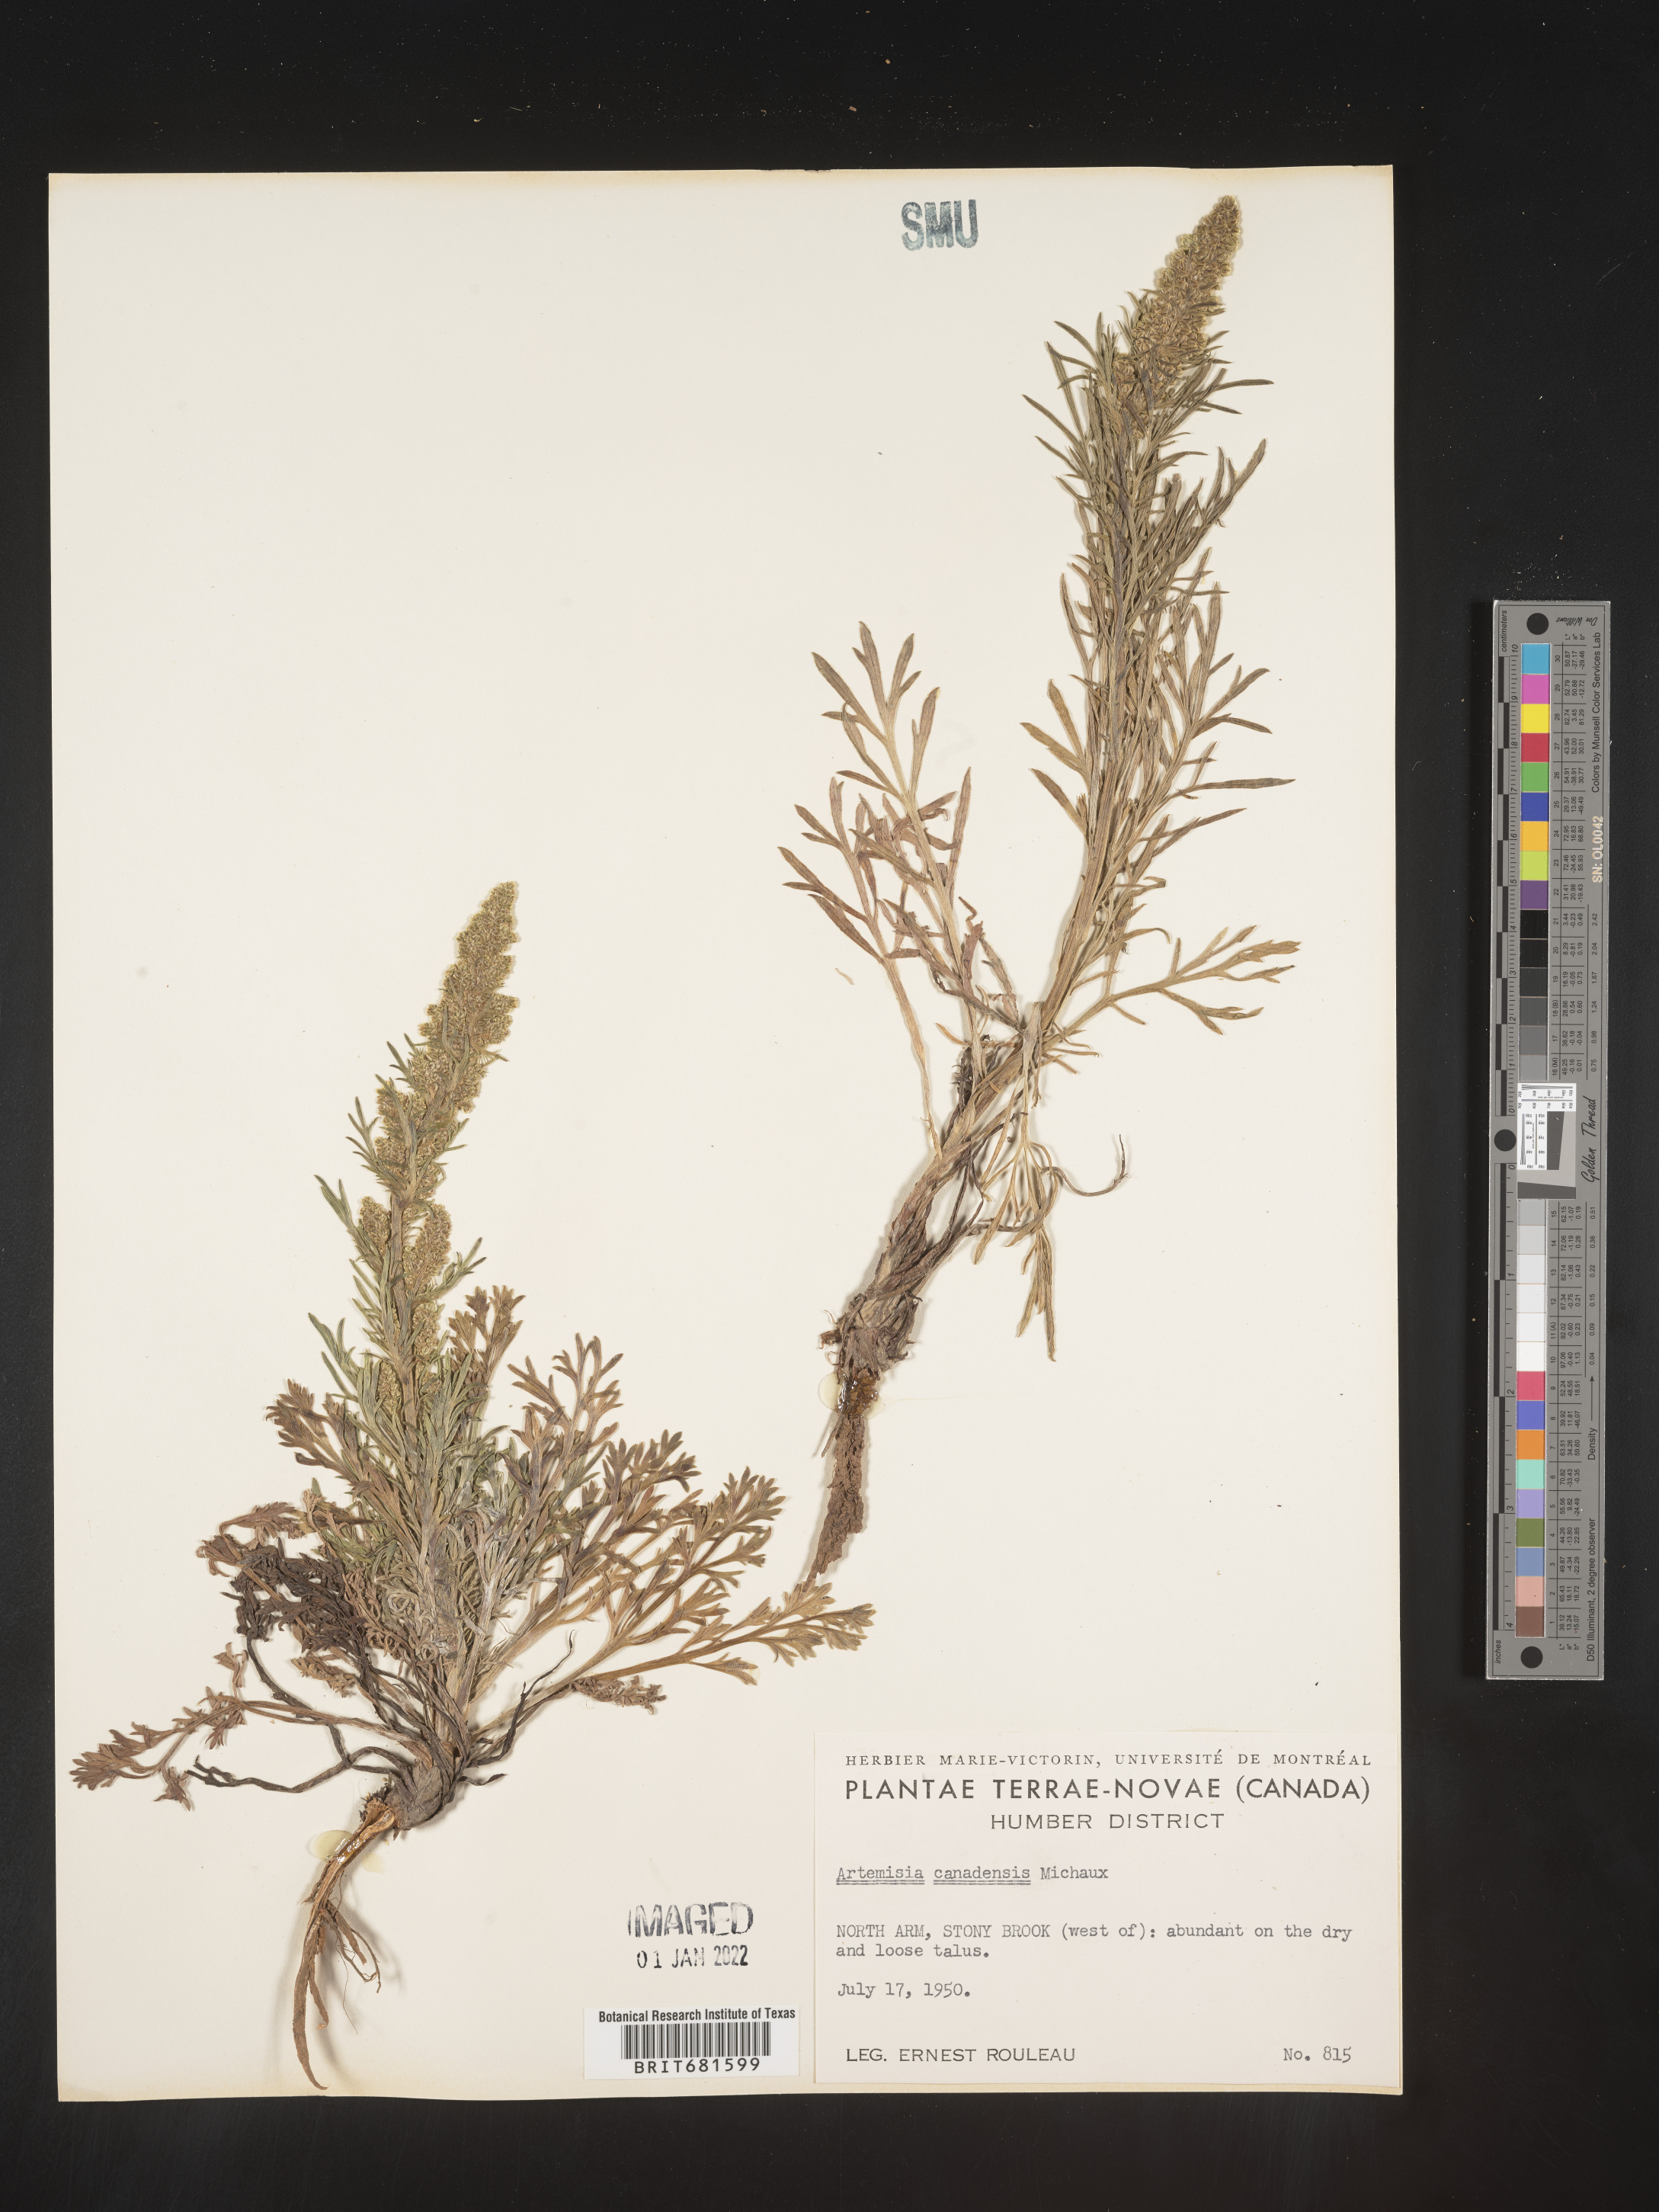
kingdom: Plantae
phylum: Tracheophyta
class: Magnoliopsida
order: Asterales
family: Asteraceae
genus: Artemisia
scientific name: Artemisia
